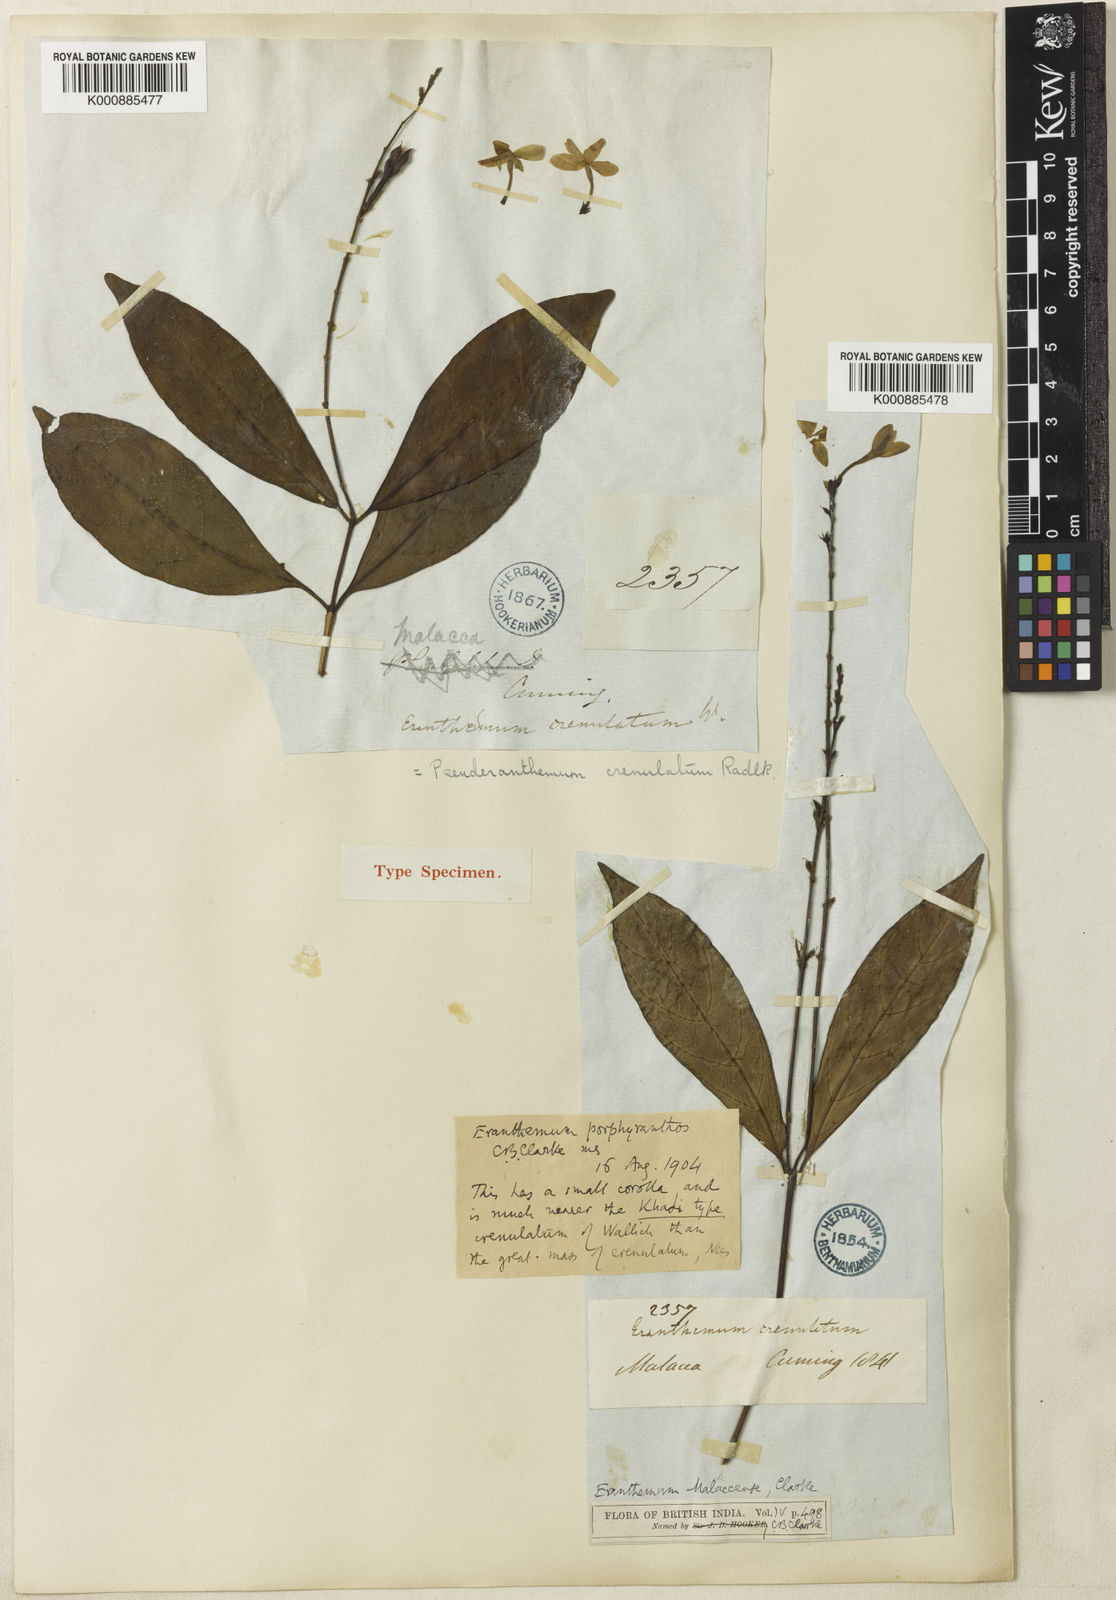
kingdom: Plantae
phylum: Tracheophyta
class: Magnoliopsida
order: Lamiales
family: Acanthaceae
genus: Pseuderanthemum
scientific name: Pseuderanthemum
